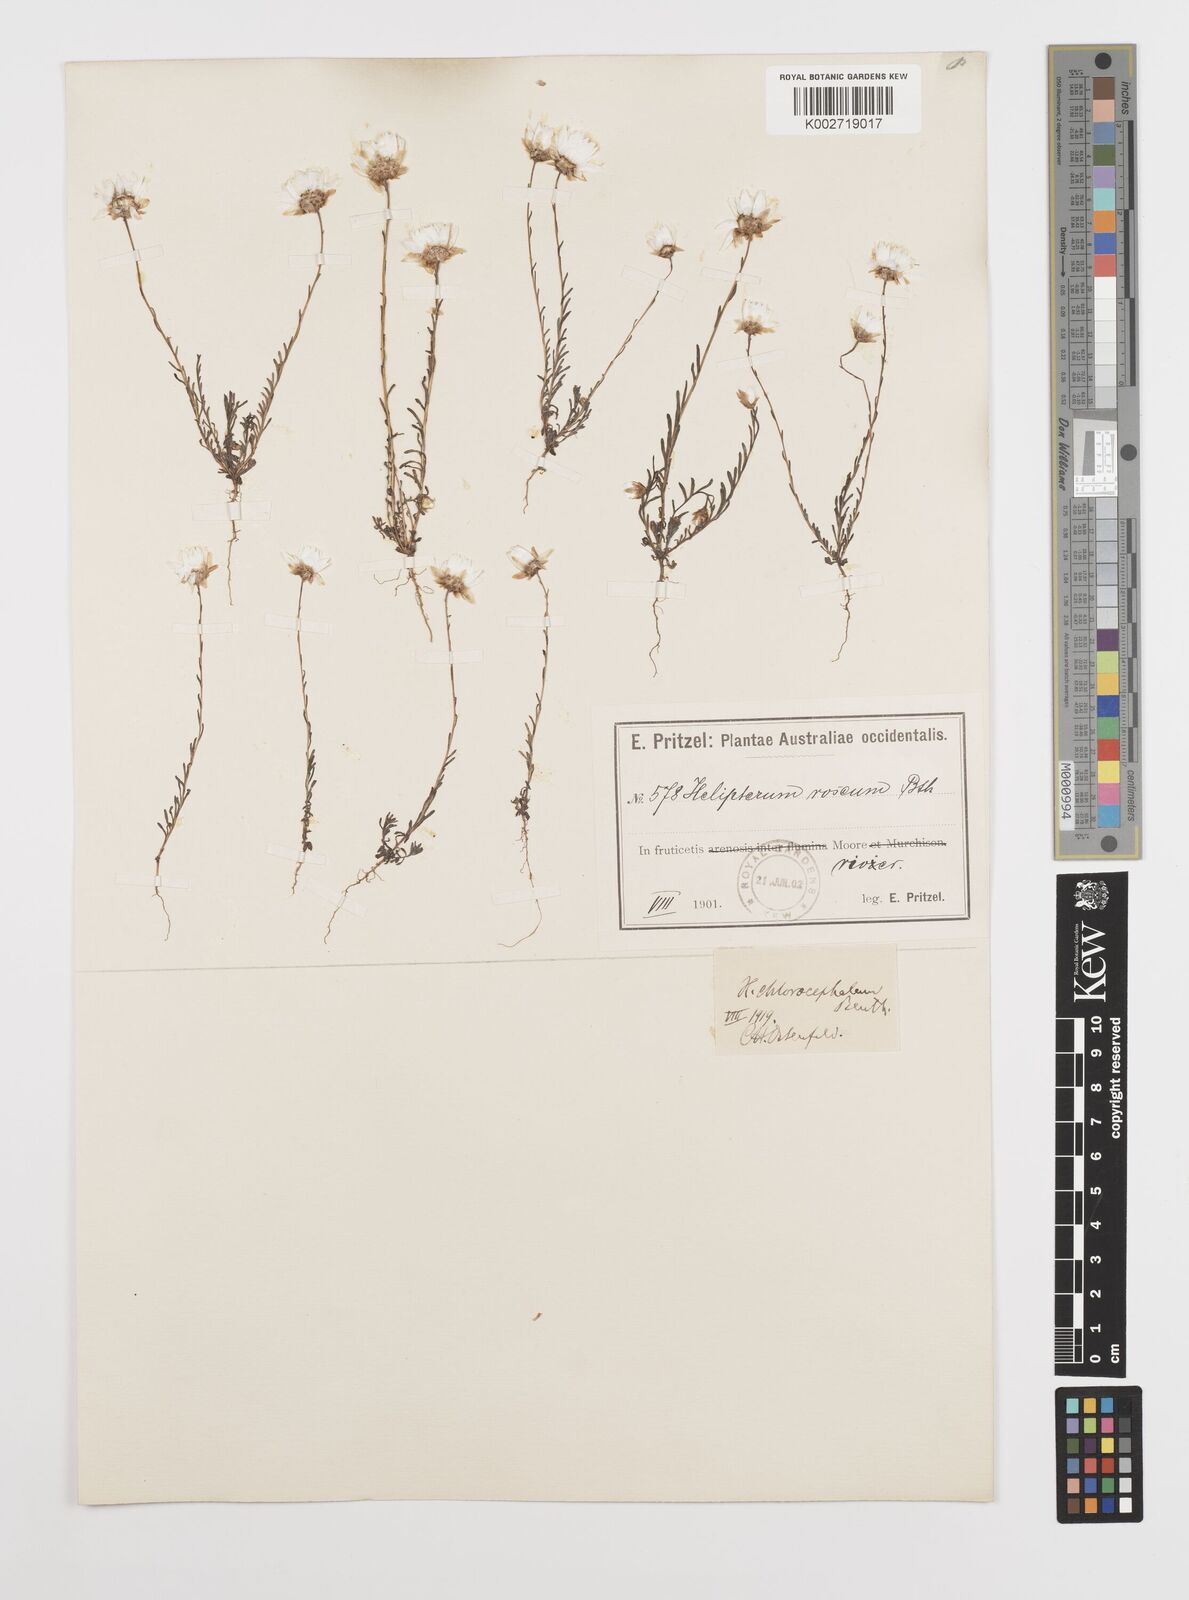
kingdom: Plantae
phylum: Tracheophyta
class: Magnoliopsida
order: Asterales
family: Asteraceae
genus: Rhodanthe
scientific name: Rhodanthe chlorocephala
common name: Rosy sunray
